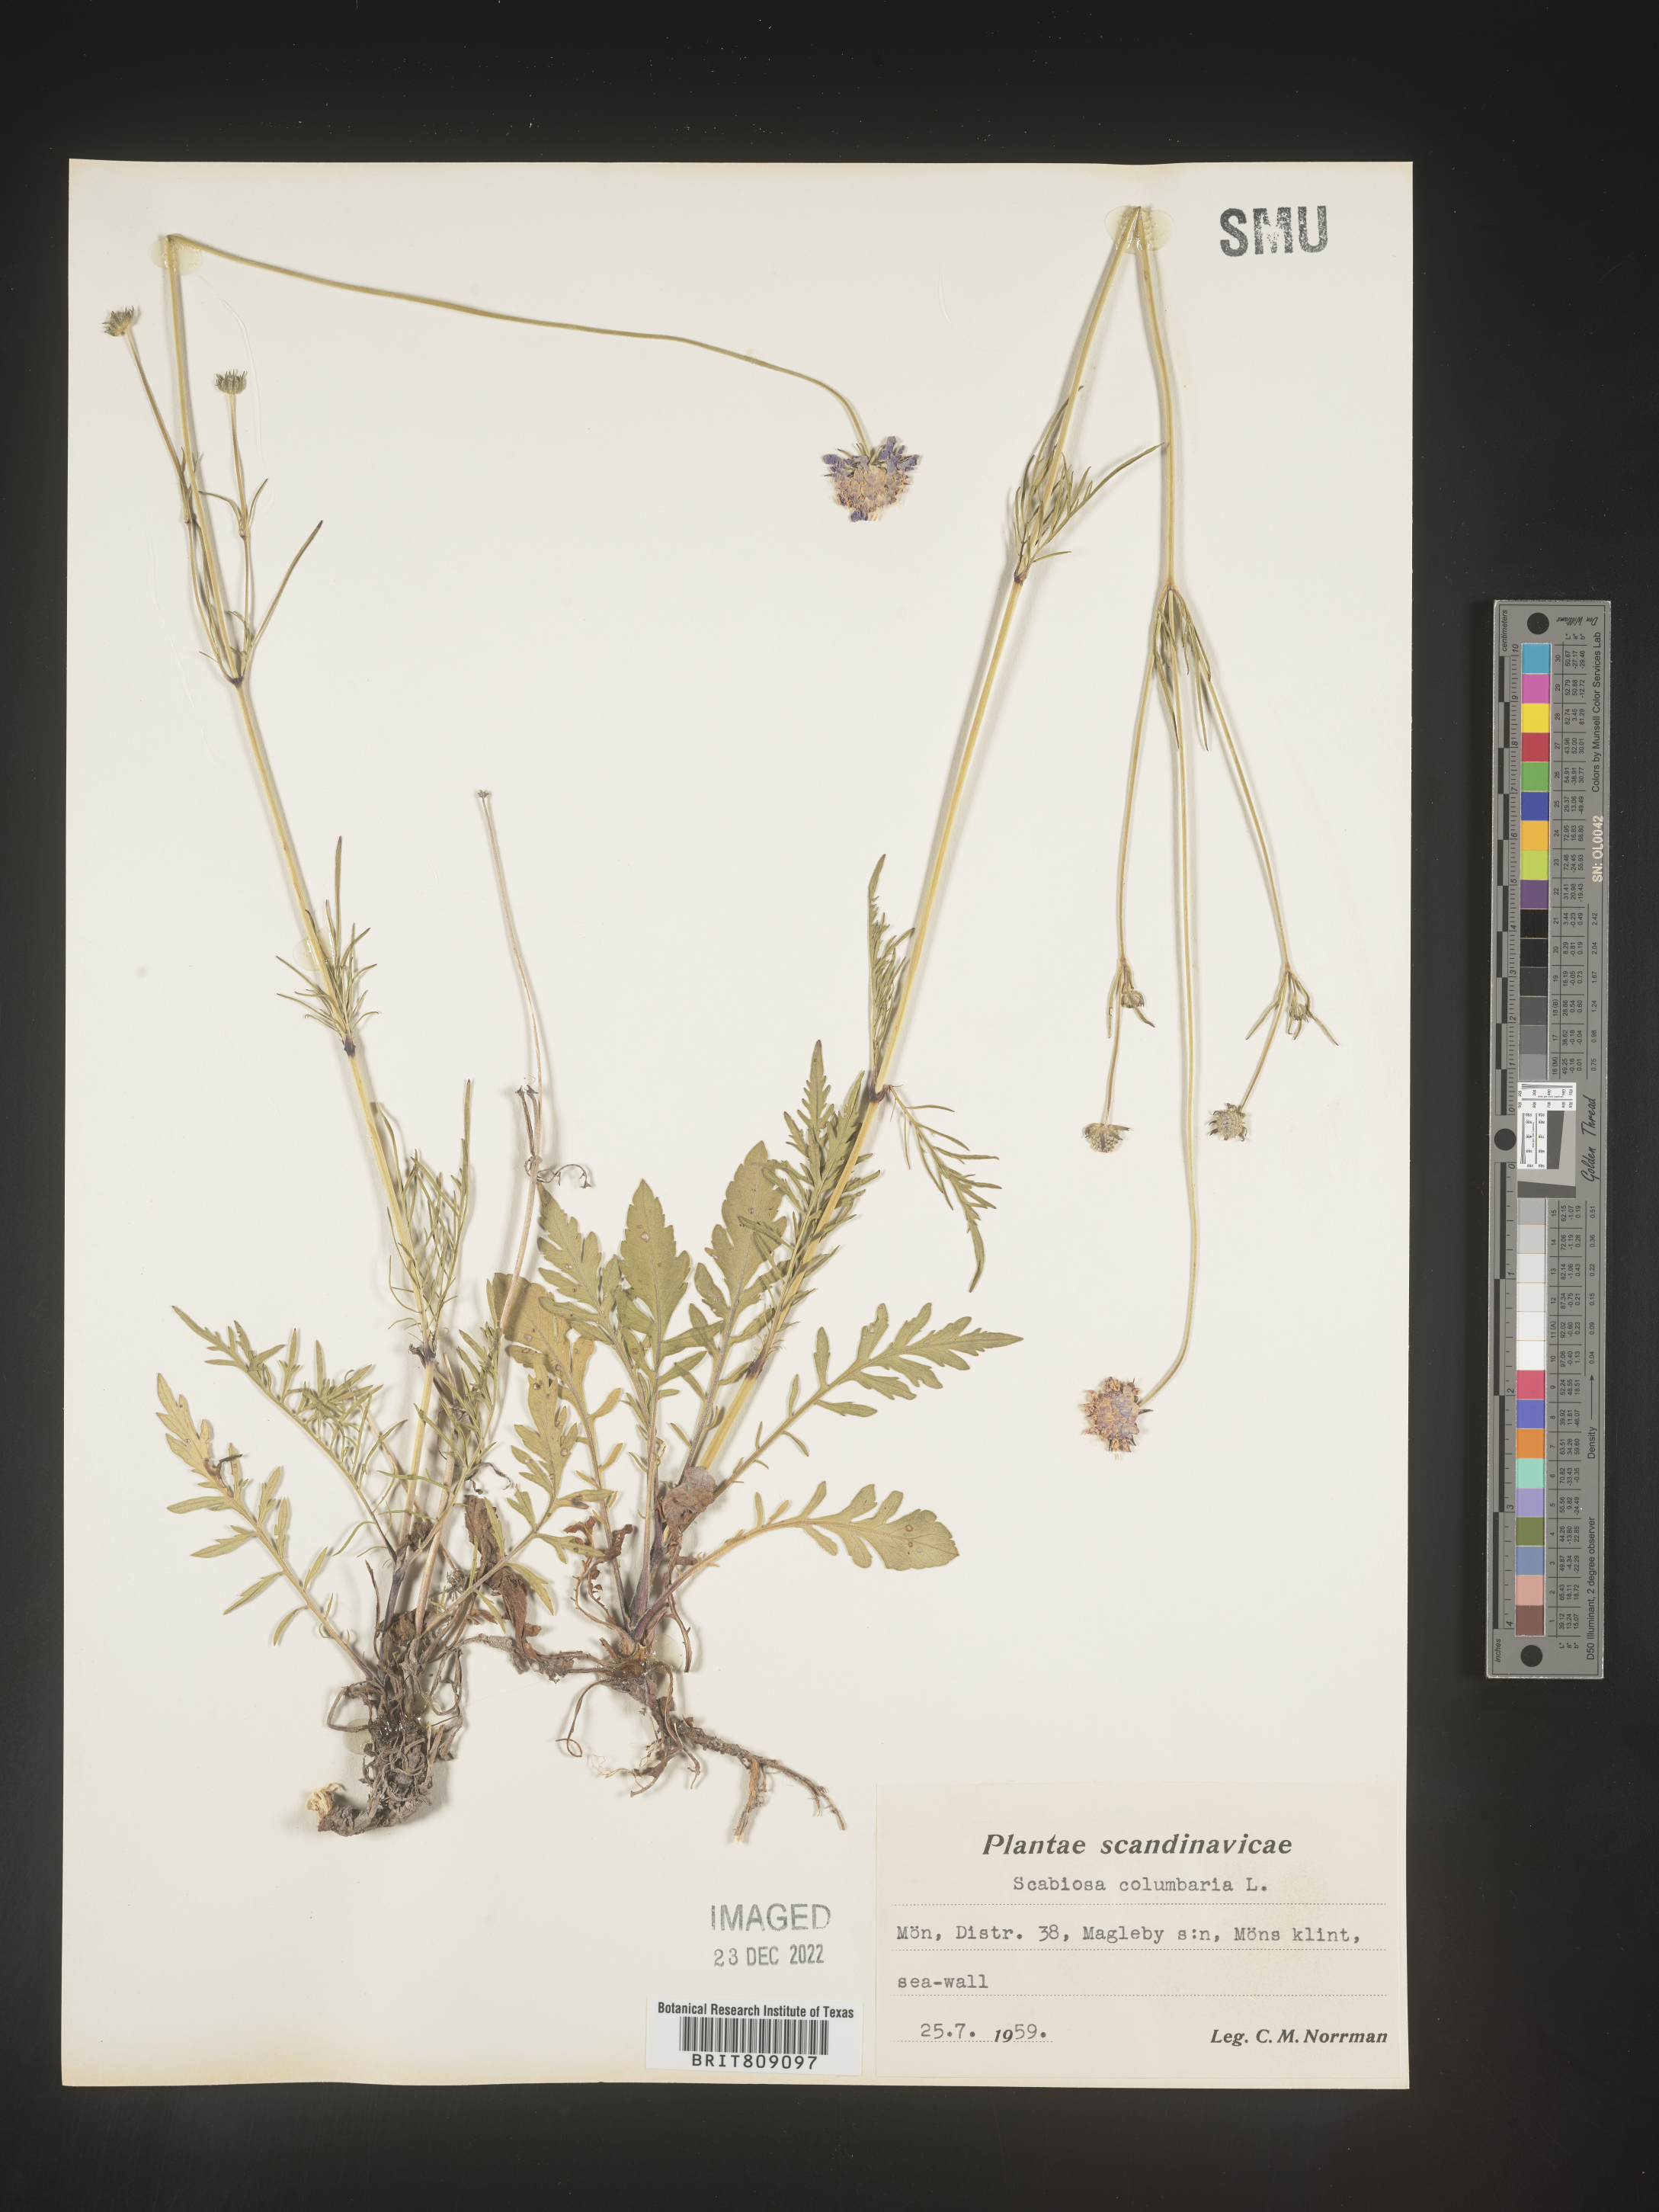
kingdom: Plantae
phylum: Tracheophyta
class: Magnoliopsida
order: Dipsacales
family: Caprifoliaceae
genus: Scabiosa
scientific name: Scabiosa
